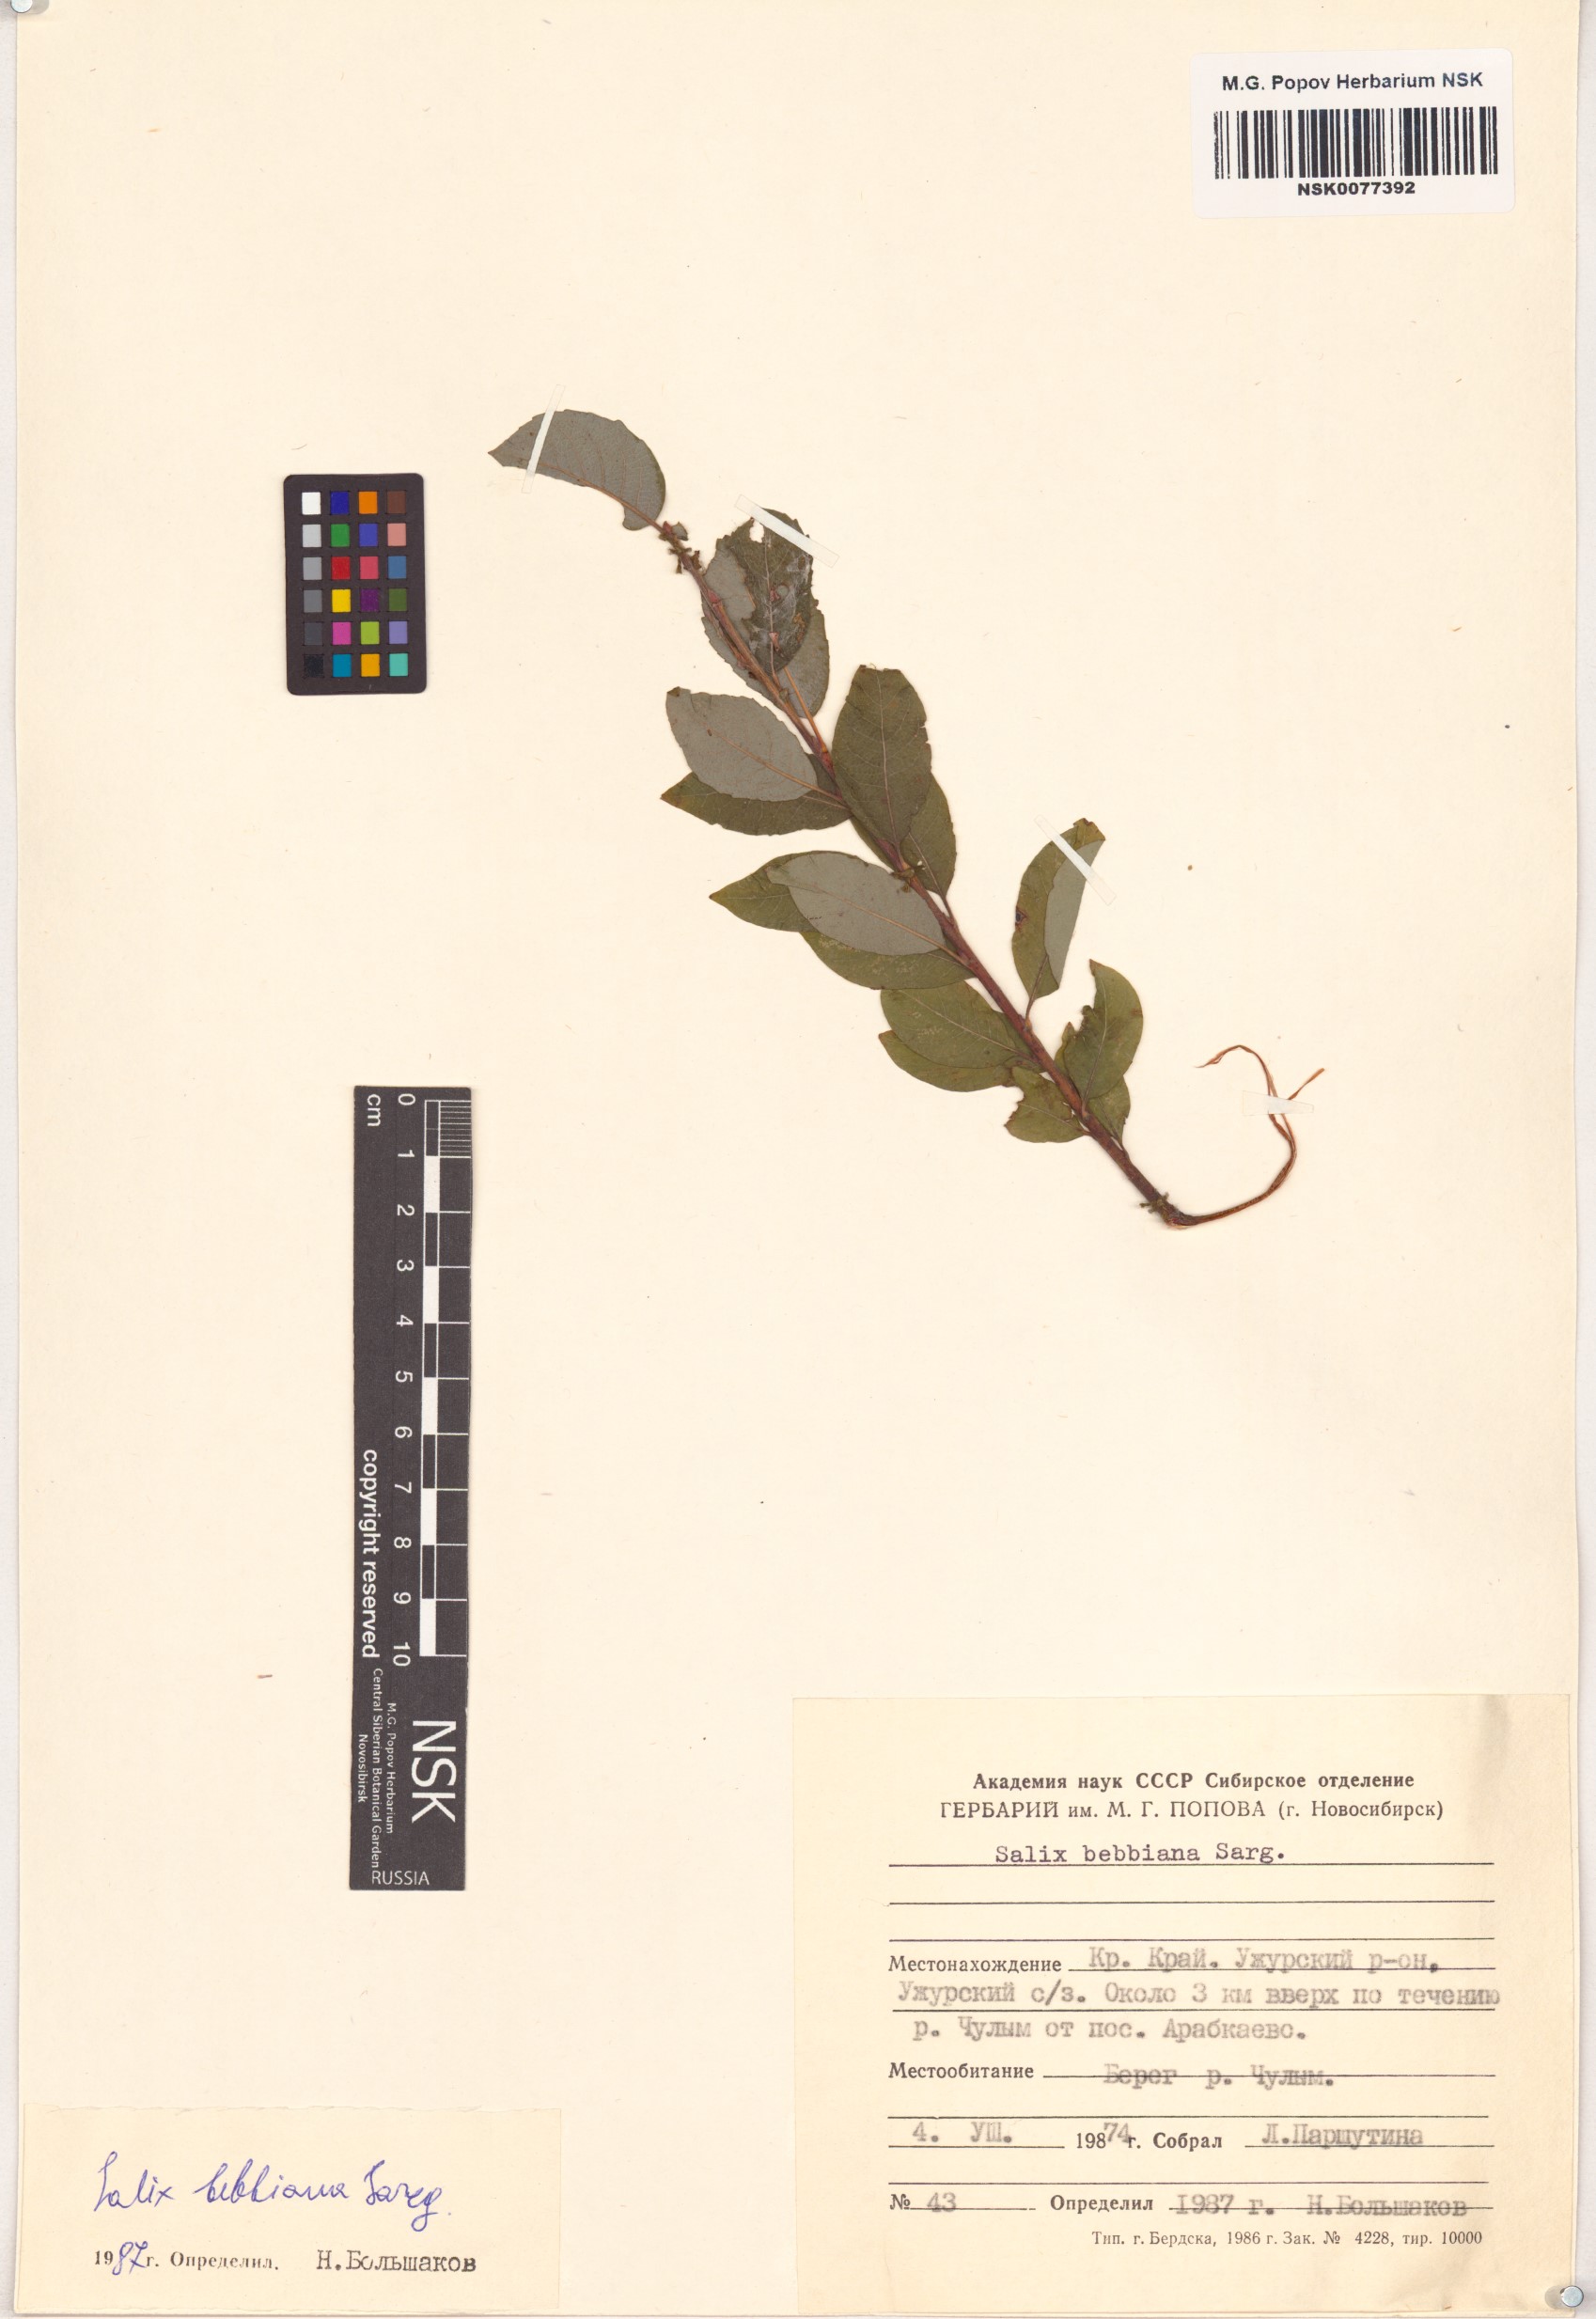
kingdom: Plantae
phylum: Tracheophyta
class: Magnoliopsida
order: Malpighiales
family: Salicaceae
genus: Salix
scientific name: Salix bebbiana
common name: Bebb's willow
